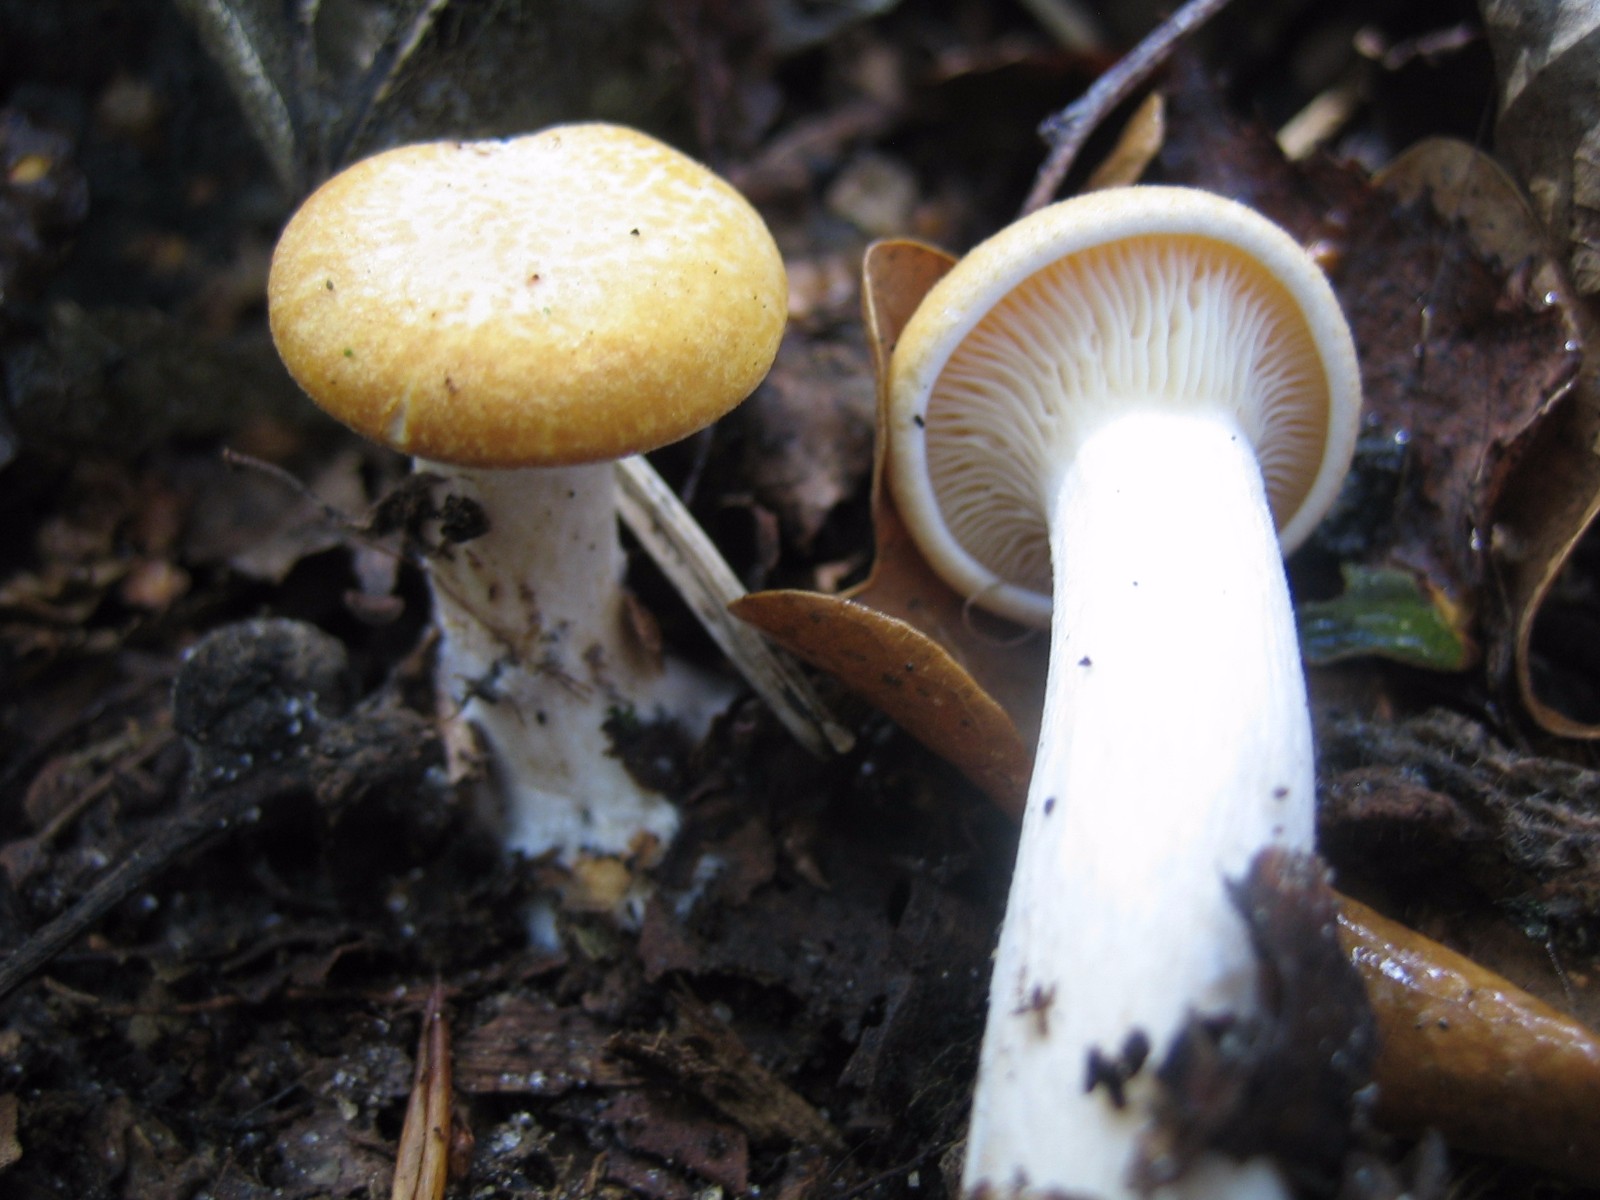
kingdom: Fungi
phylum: Basidiomycota
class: Agaricomycetes
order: Agaricales
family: Tricholomataceae
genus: Paralepista
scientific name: Paralepista gilva
